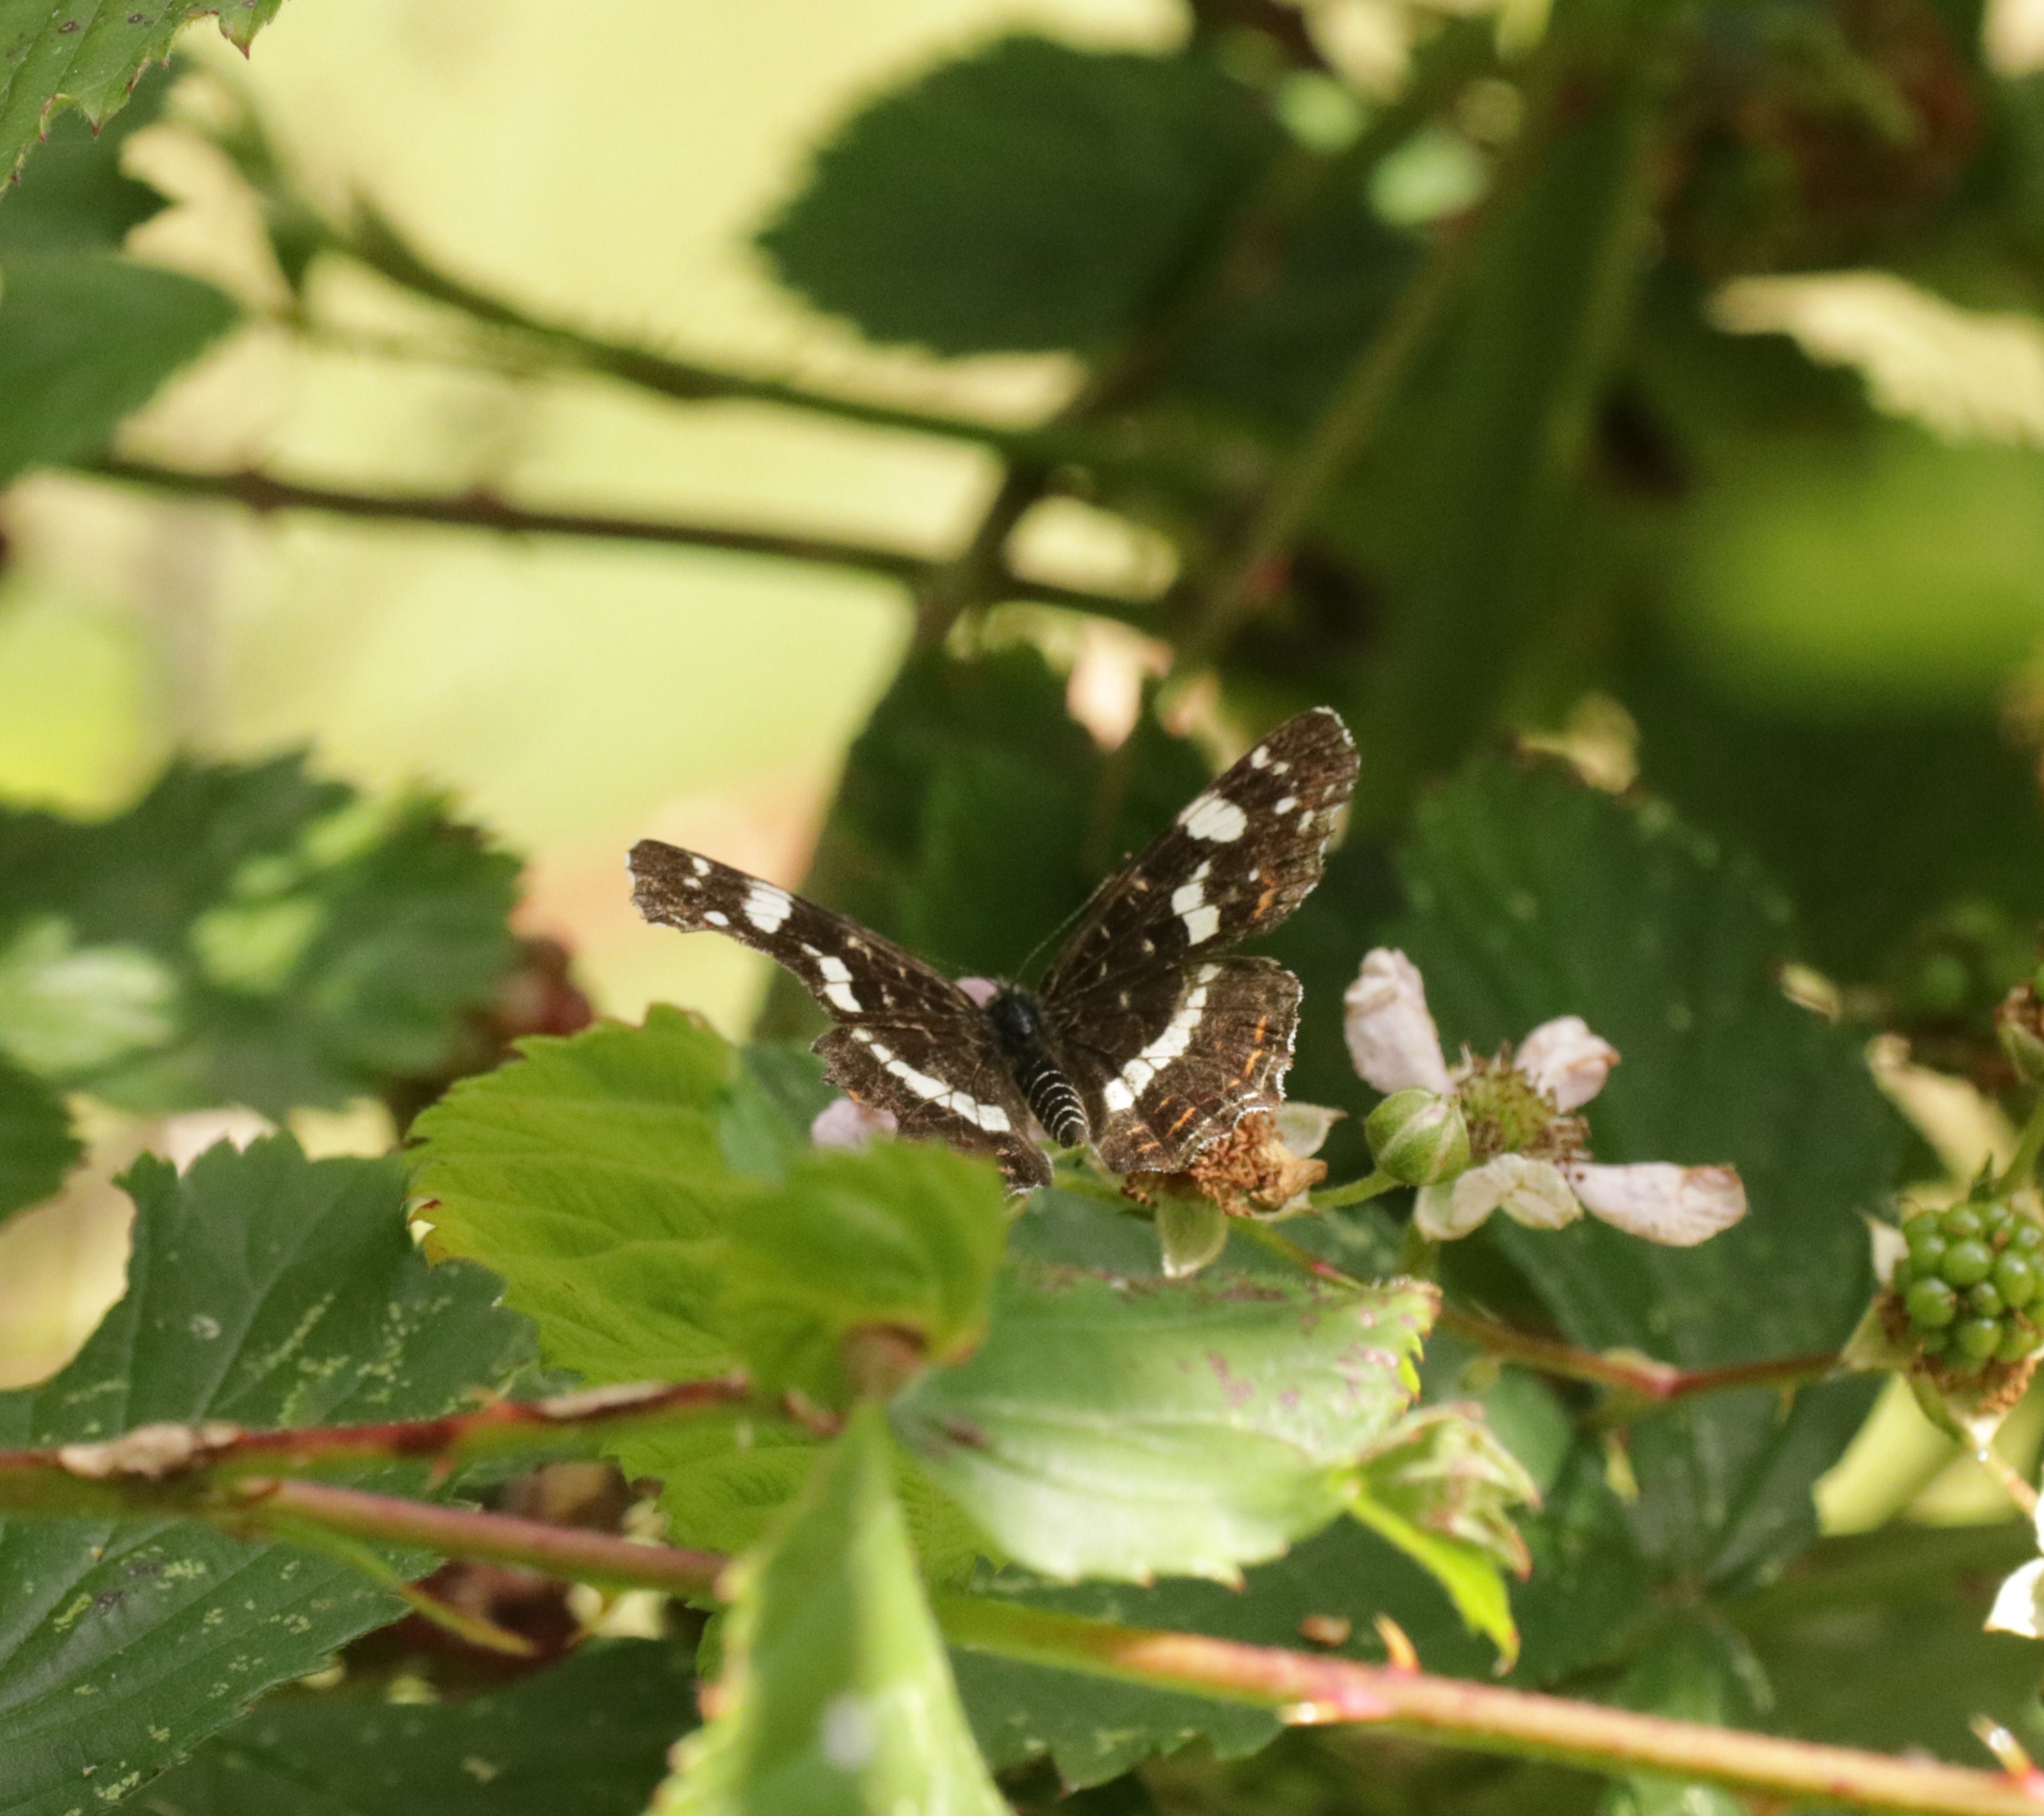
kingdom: Animalia
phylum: Arthropoda
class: Insecta
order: Lepidoptera
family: Nymphalidae
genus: Araschnia
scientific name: Araschnia levana
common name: Nældesommerfugl
